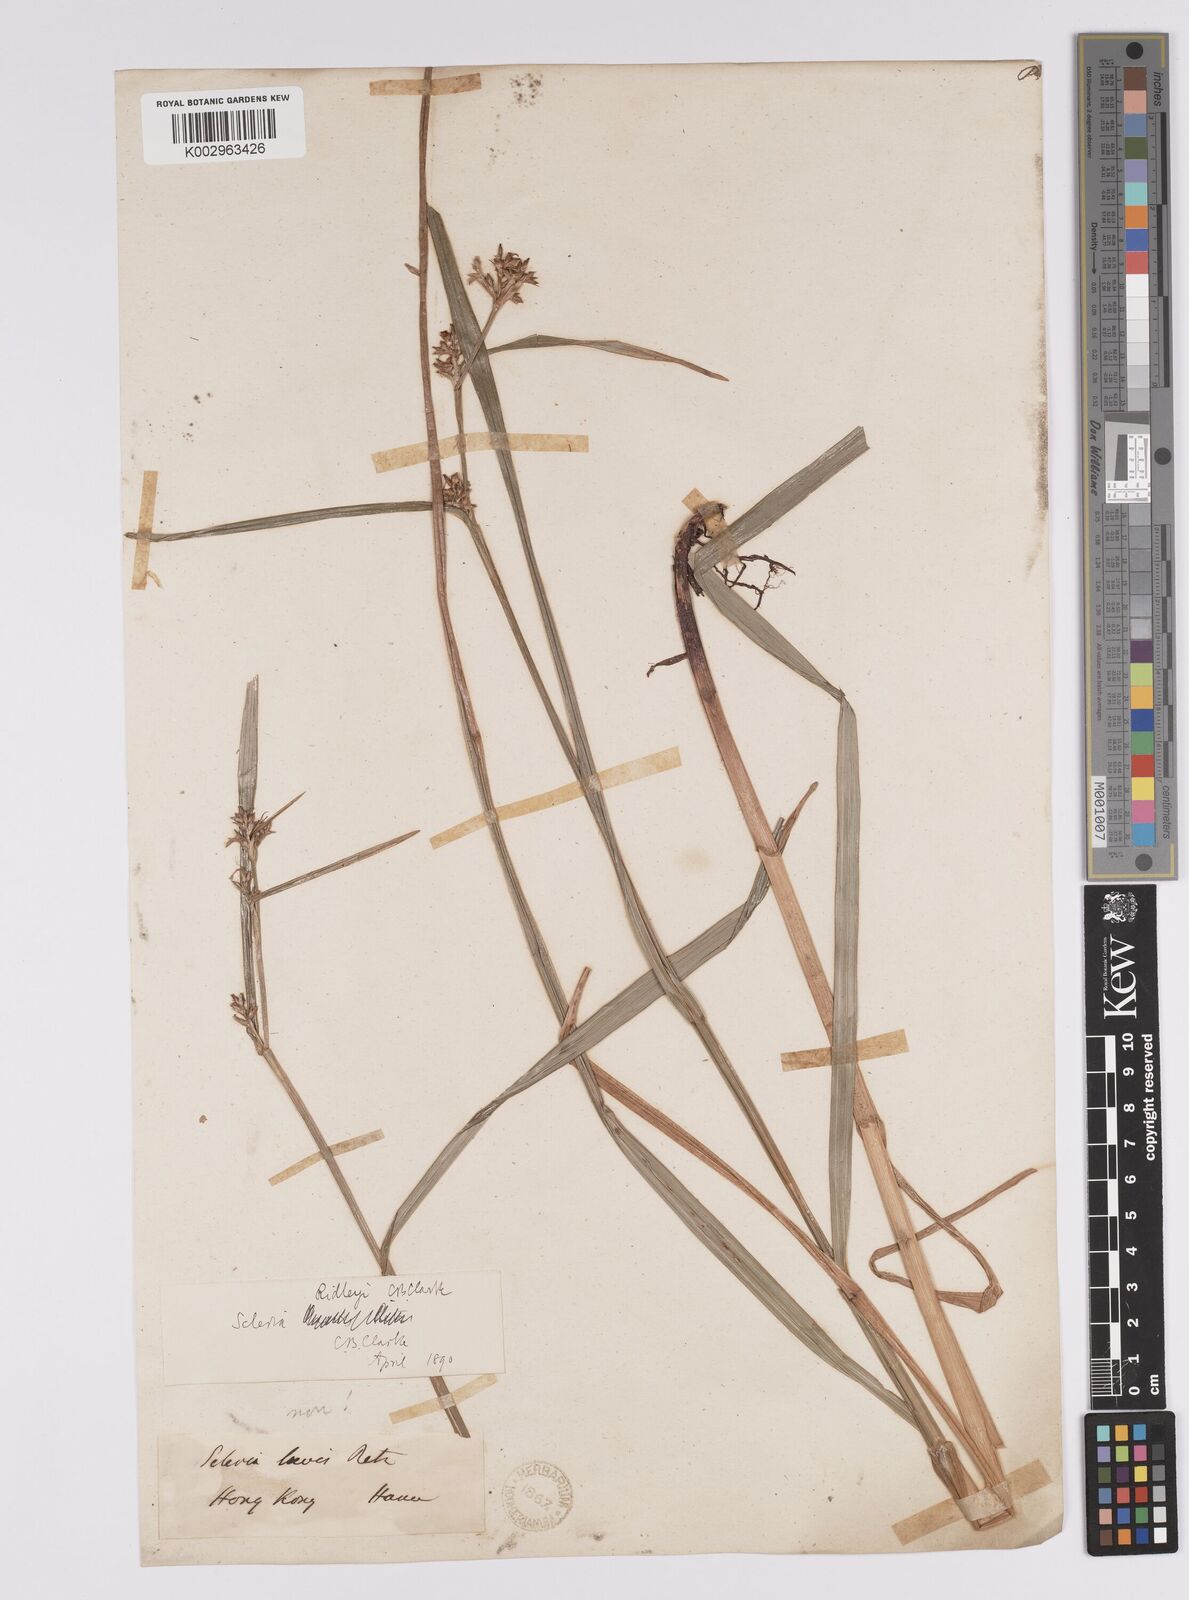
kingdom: Plantae
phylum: Tracheophyta
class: Liliopsida
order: Poales
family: Cyperaceae
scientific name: Cyperaceae
